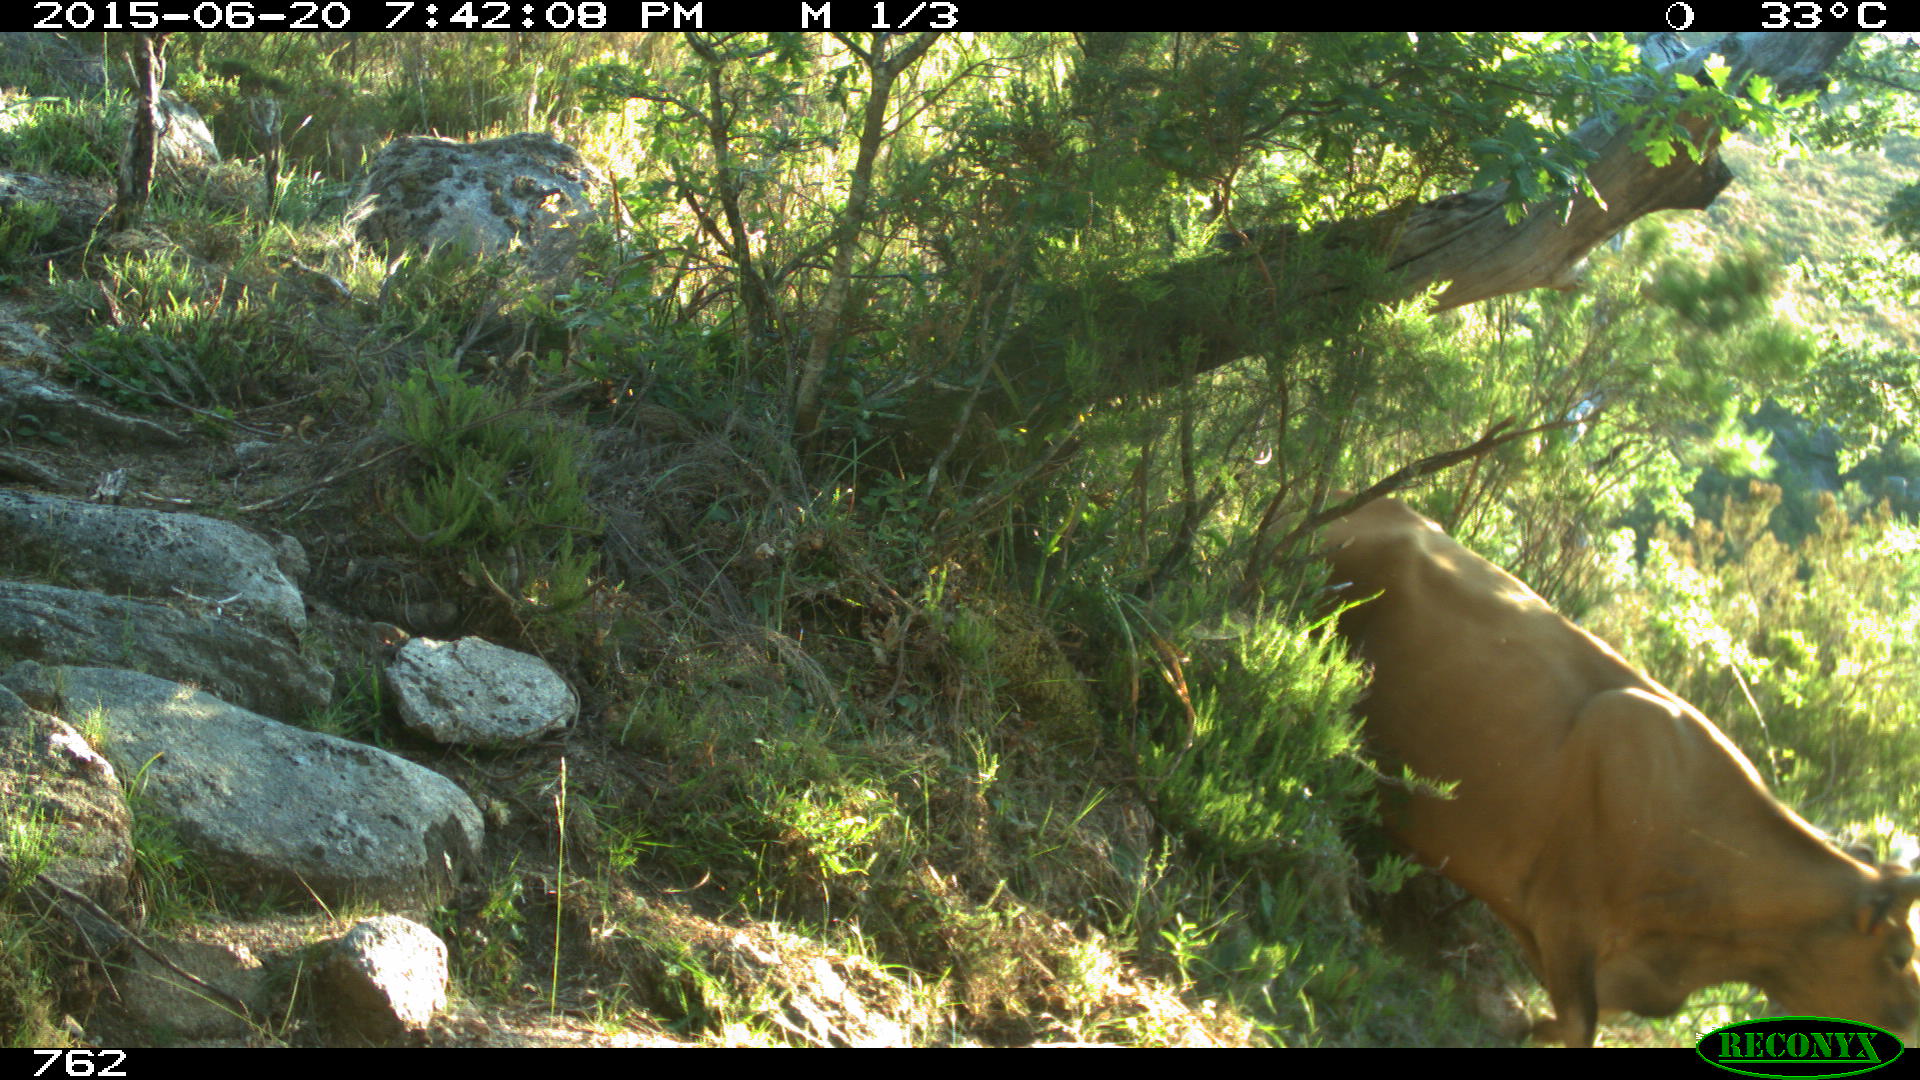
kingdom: Animalia
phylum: Chordata
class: Mammalia
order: Artiodactyla
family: Bovidae
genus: Bos
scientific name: Bos taurus
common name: Domesticated cattle
